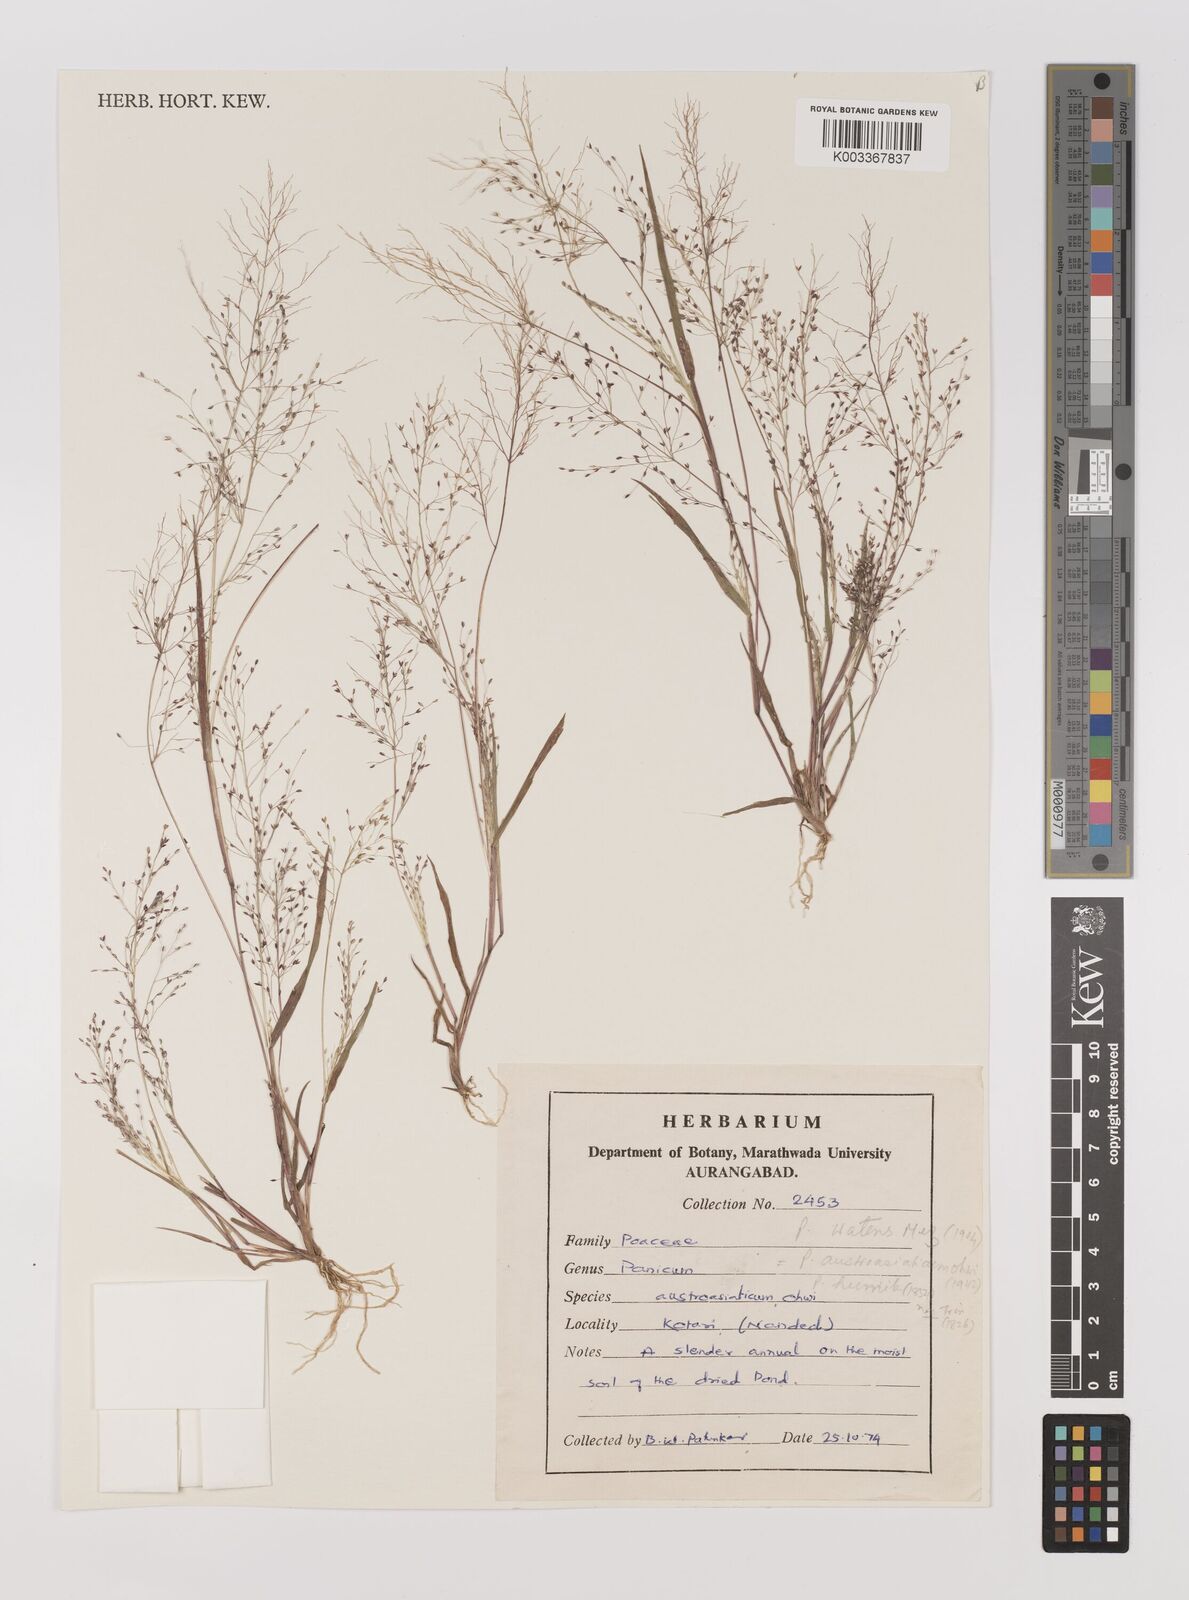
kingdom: Plantae
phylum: Tracheophyta
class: Liliopsida
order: Poales
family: Poaceae
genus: Panicum
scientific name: Panicum humile
